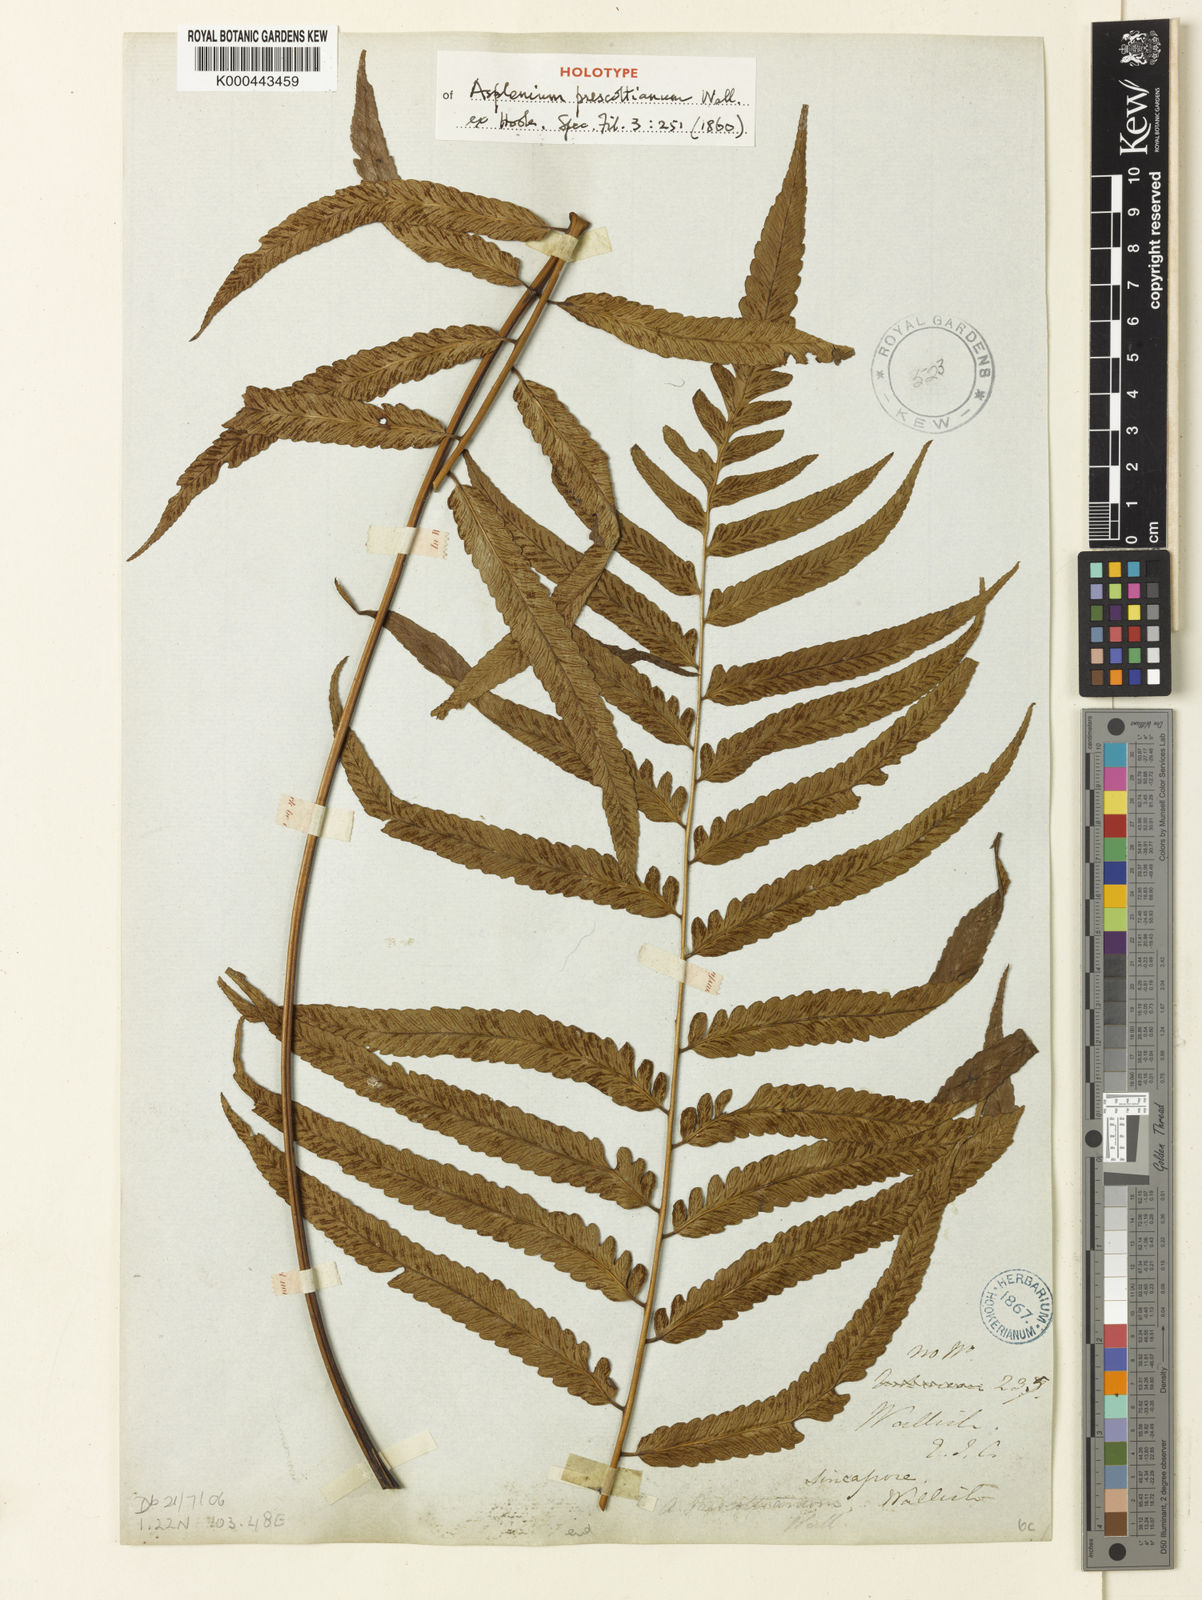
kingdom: Plantae
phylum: Tracheophyta
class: Polypodiopsida
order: Polypodiales
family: Athyriaceae
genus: Diplazium
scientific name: Diplazium mixtum
